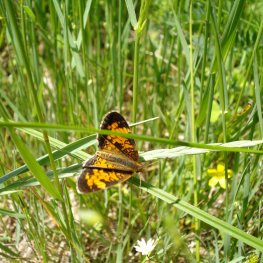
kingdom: Animalia
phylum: Arthropoda
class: Insecta
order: Lepidoptera
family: Nymphalidae
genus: Phyciodes
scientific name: Phyciodes tharos
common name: Northern Crescent
